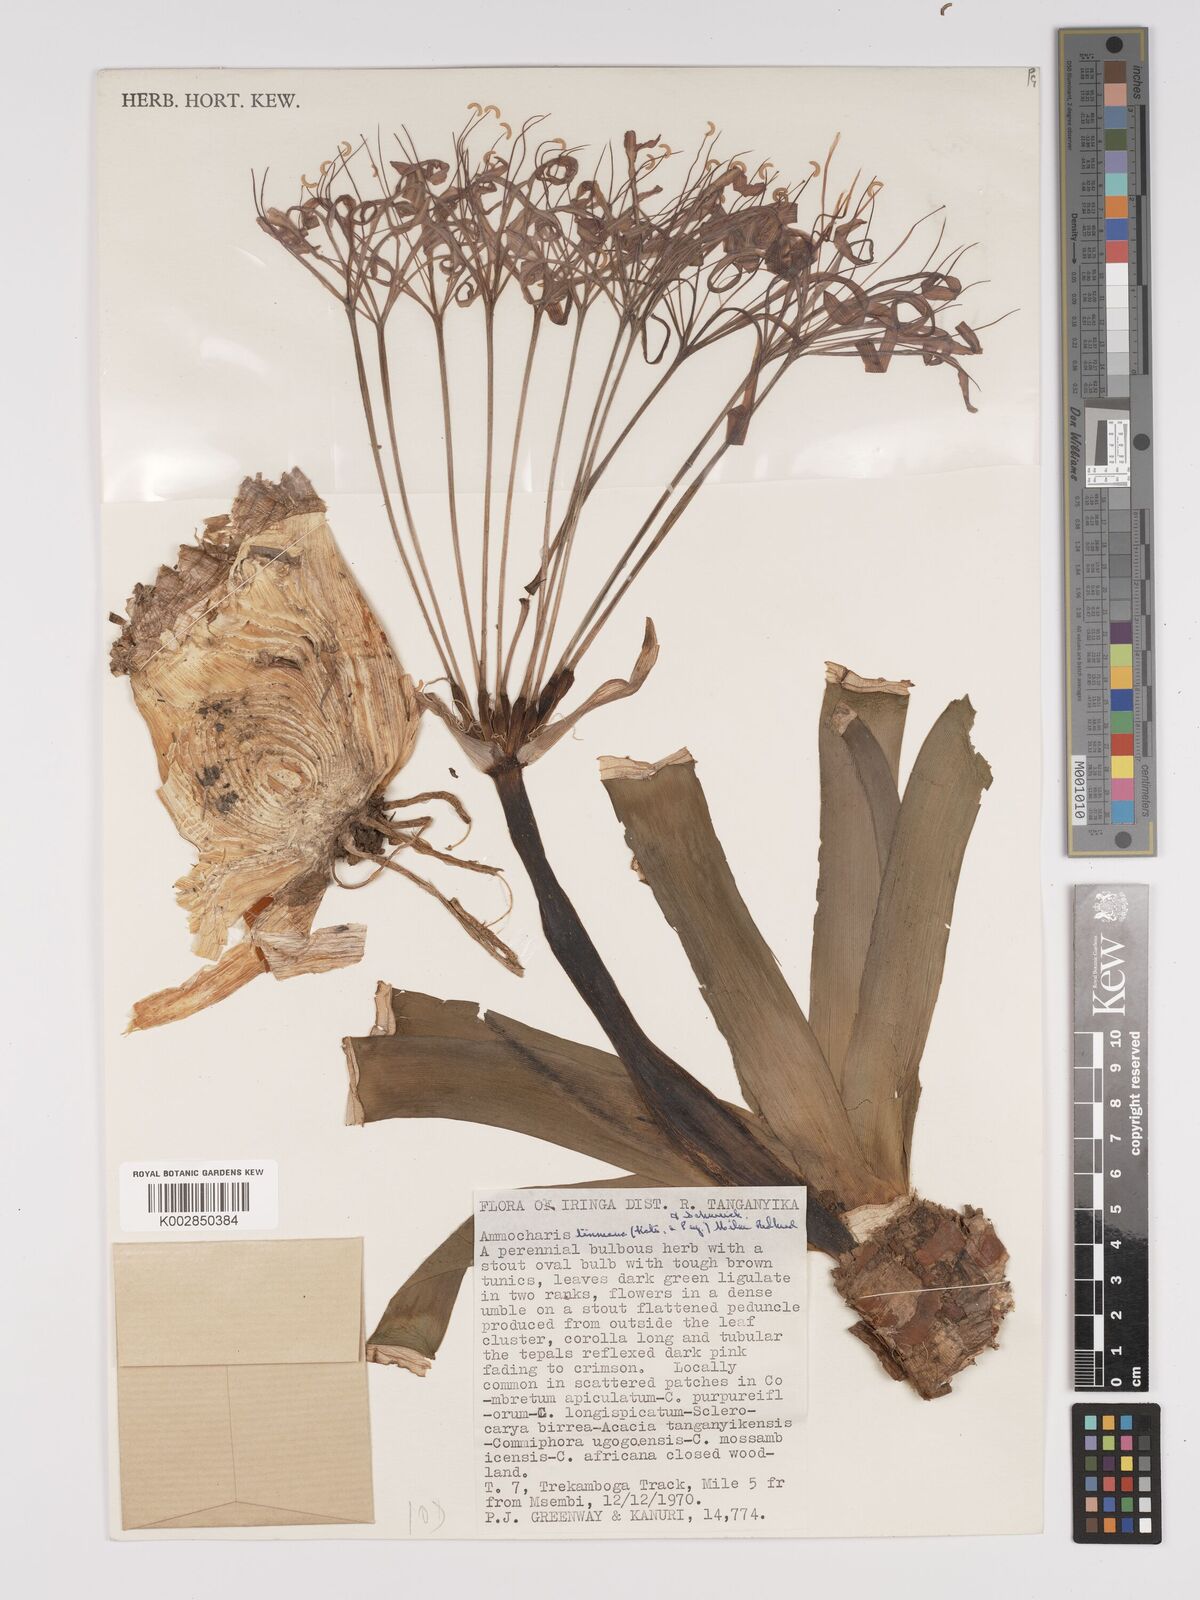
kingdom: Plantae
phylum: Tracheophyta
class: Liliopsida
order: Asparagales
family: Amaryllidaceae
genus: Ammocharis
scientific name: Ammocharis tinneana
